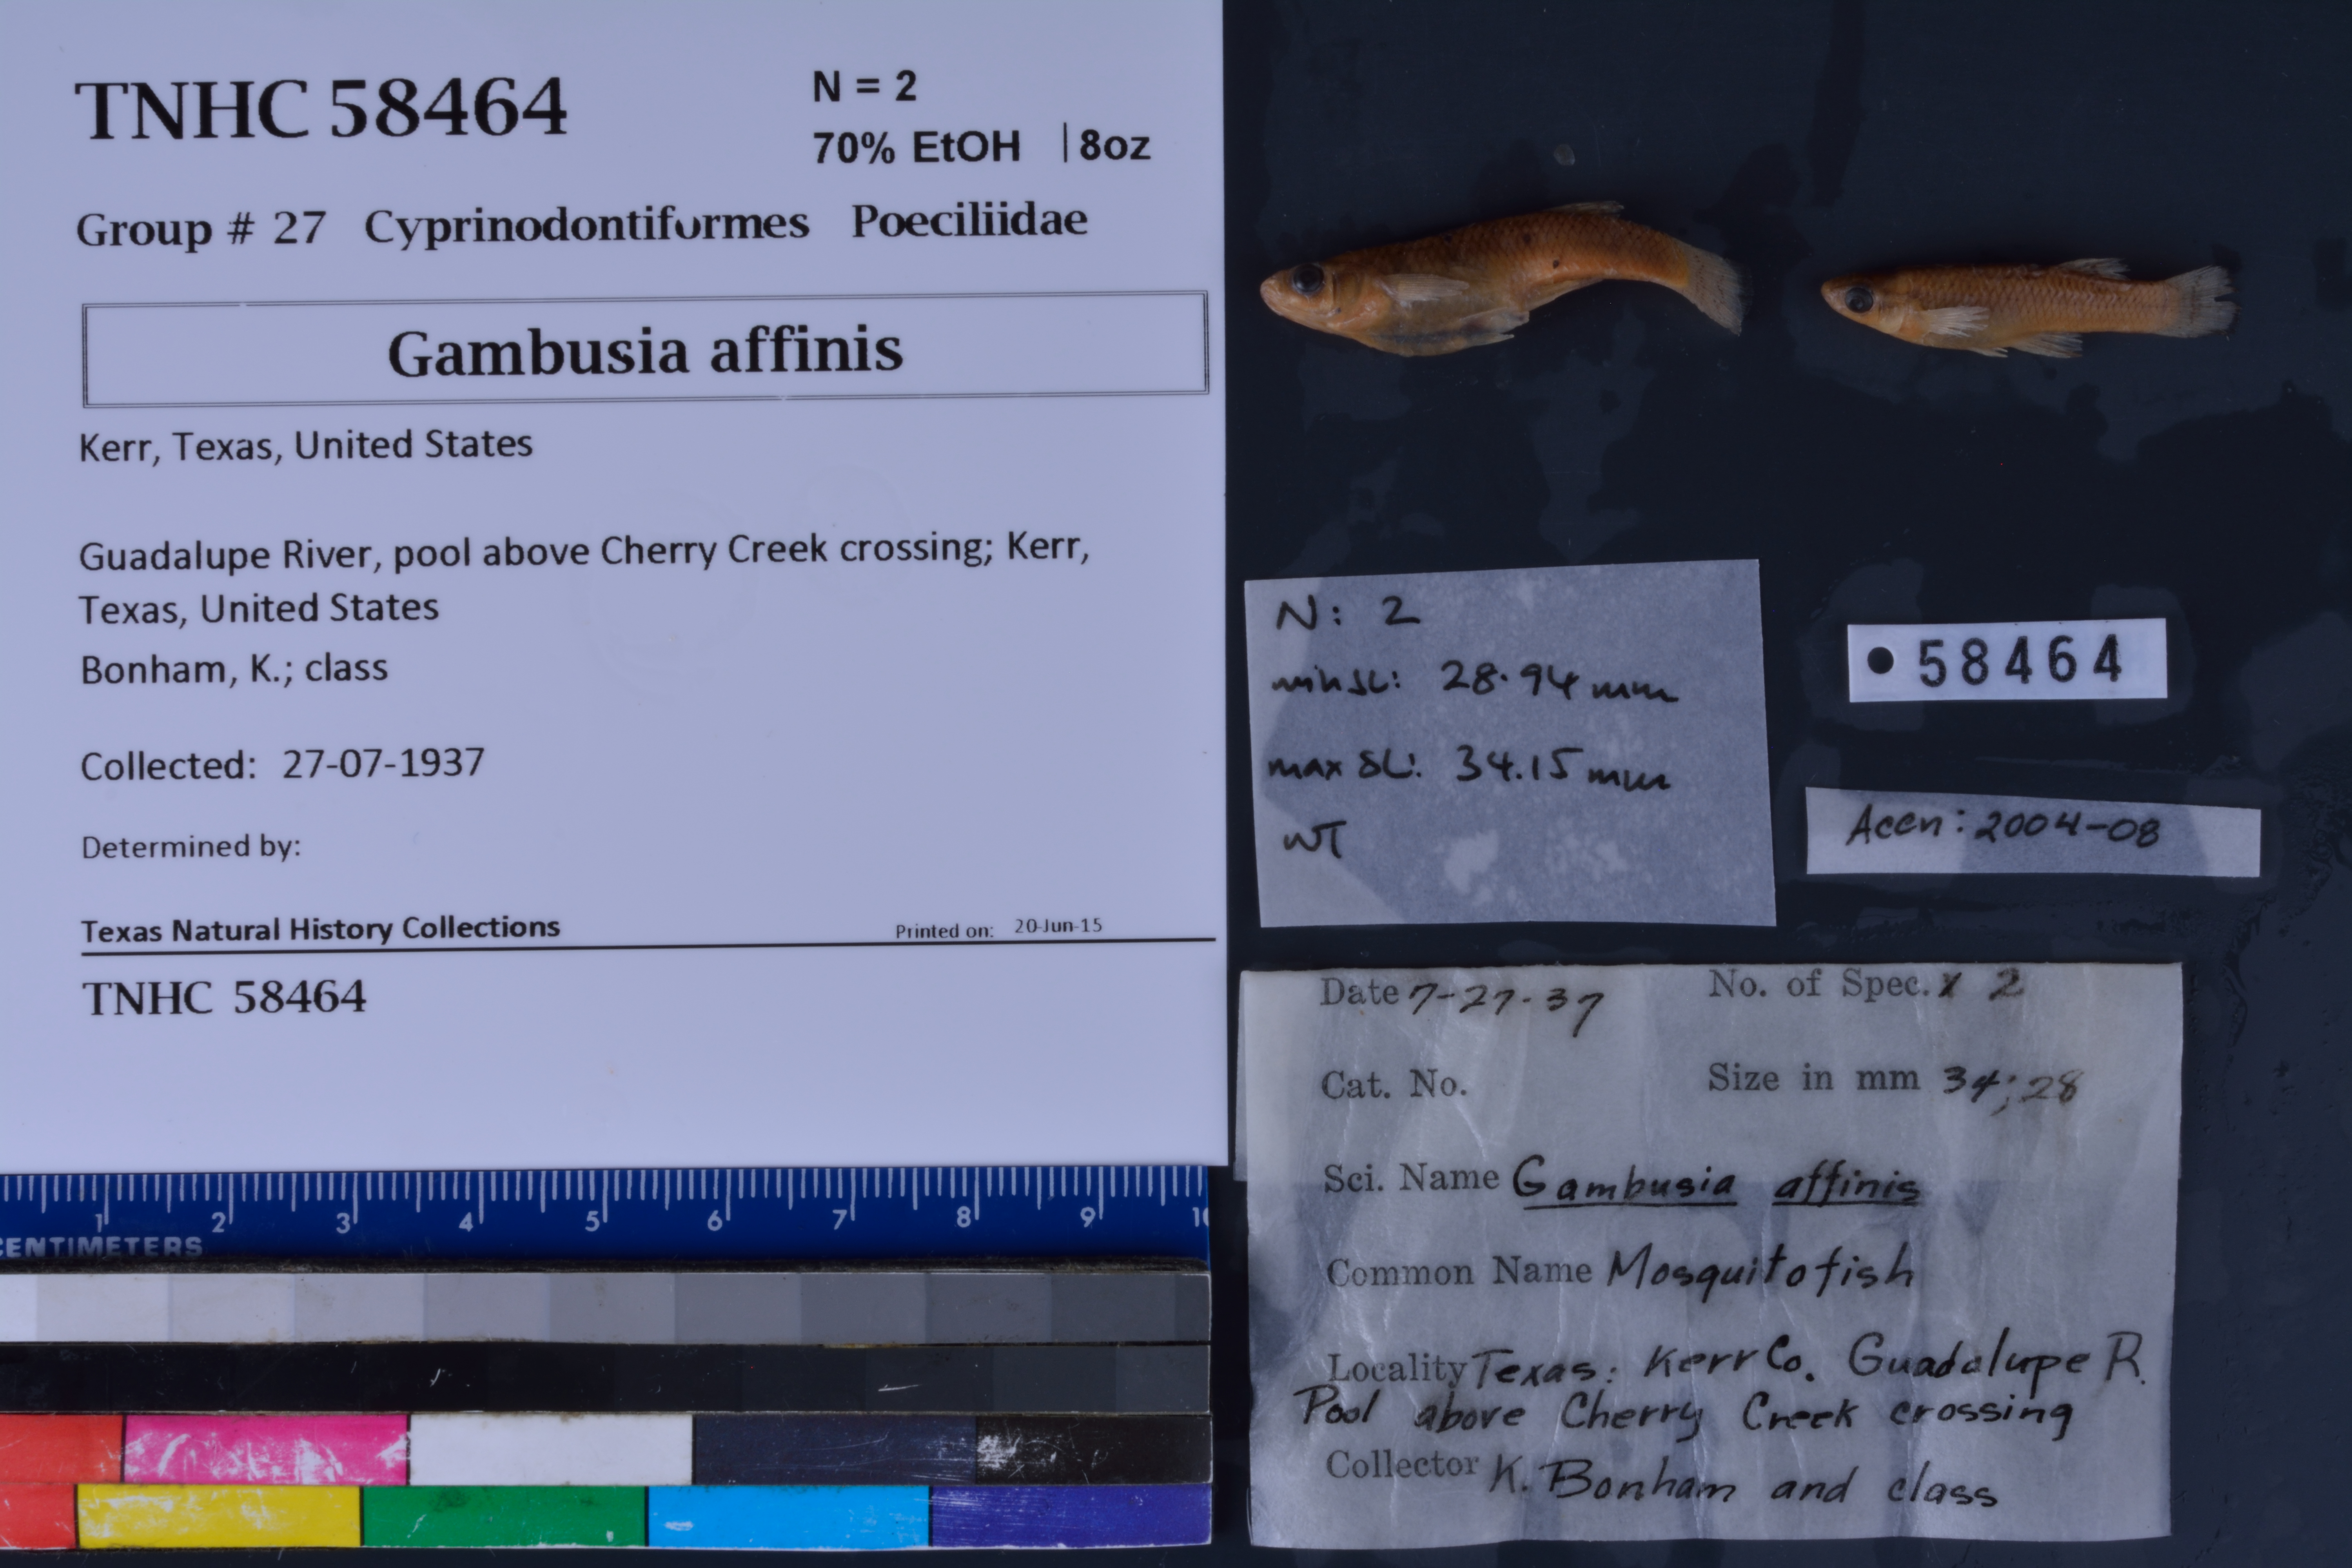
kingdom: Animalia
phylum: Chordata
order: Cyprinodontiformes
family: Poeciliidae
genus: Gambusia
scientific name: Gambusia affinis
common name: Mosquitofish
